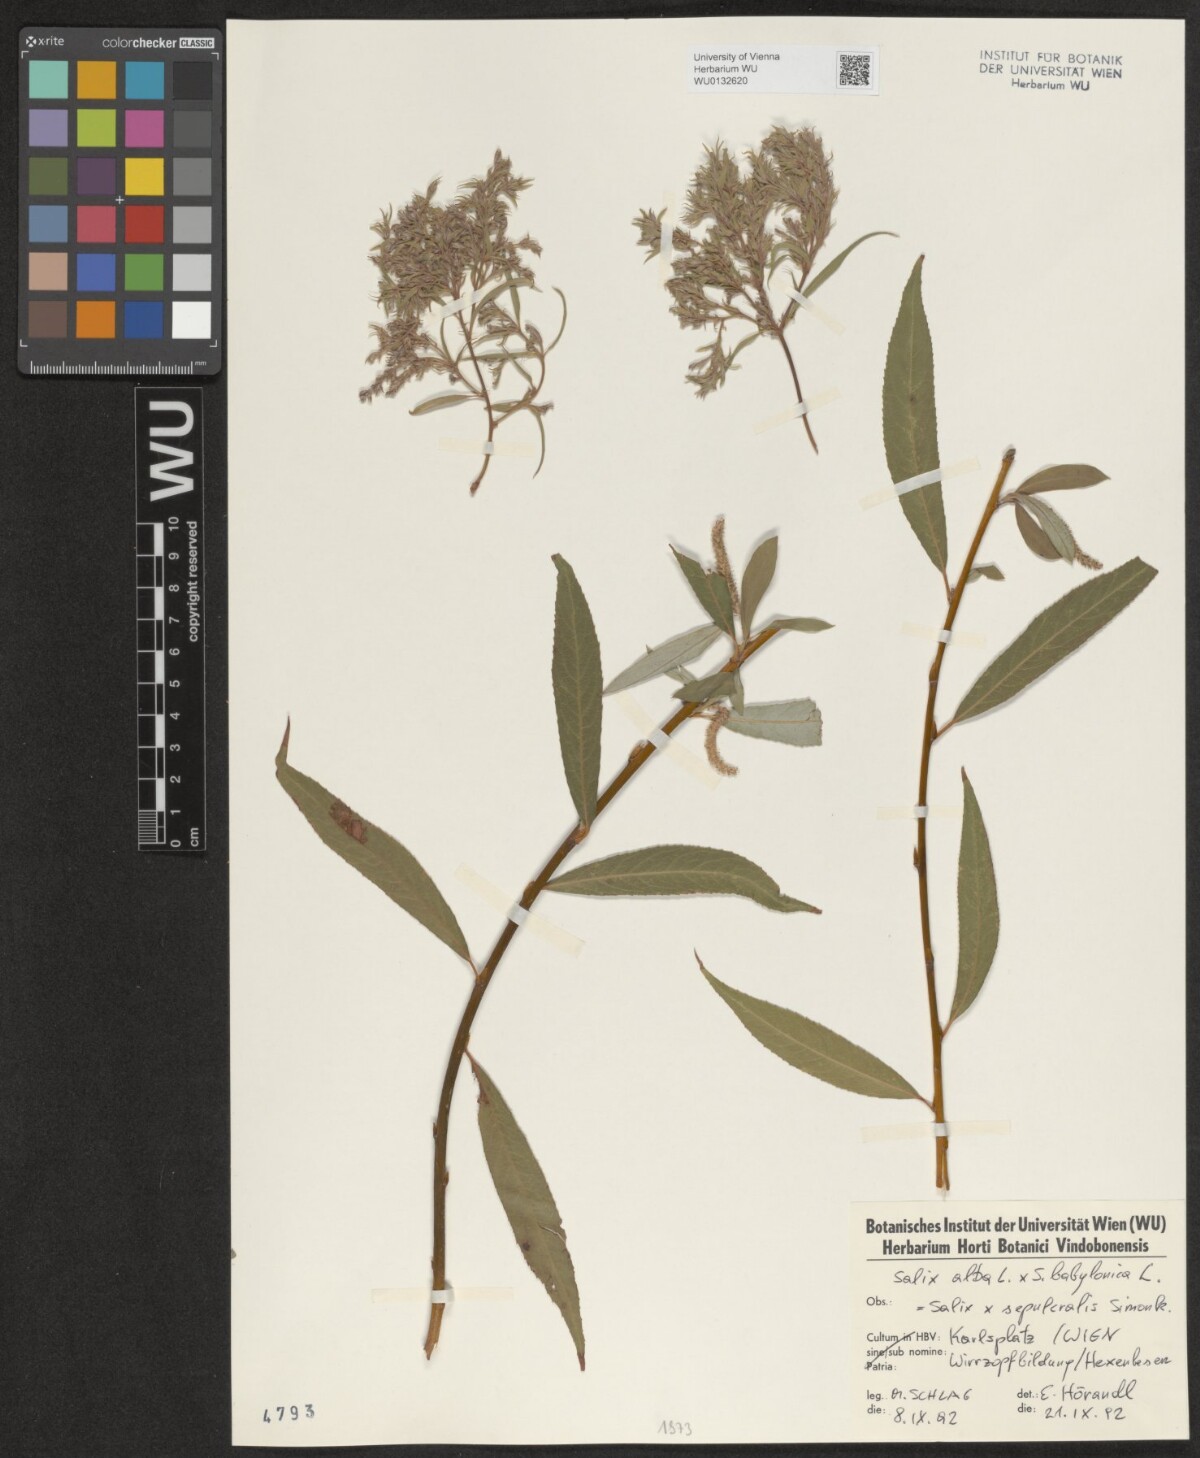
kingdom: Plantae
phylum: Tracheophyta
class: Magnoliopsida
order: Malpighiales
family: Salicaceae
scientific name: Salicaceae
